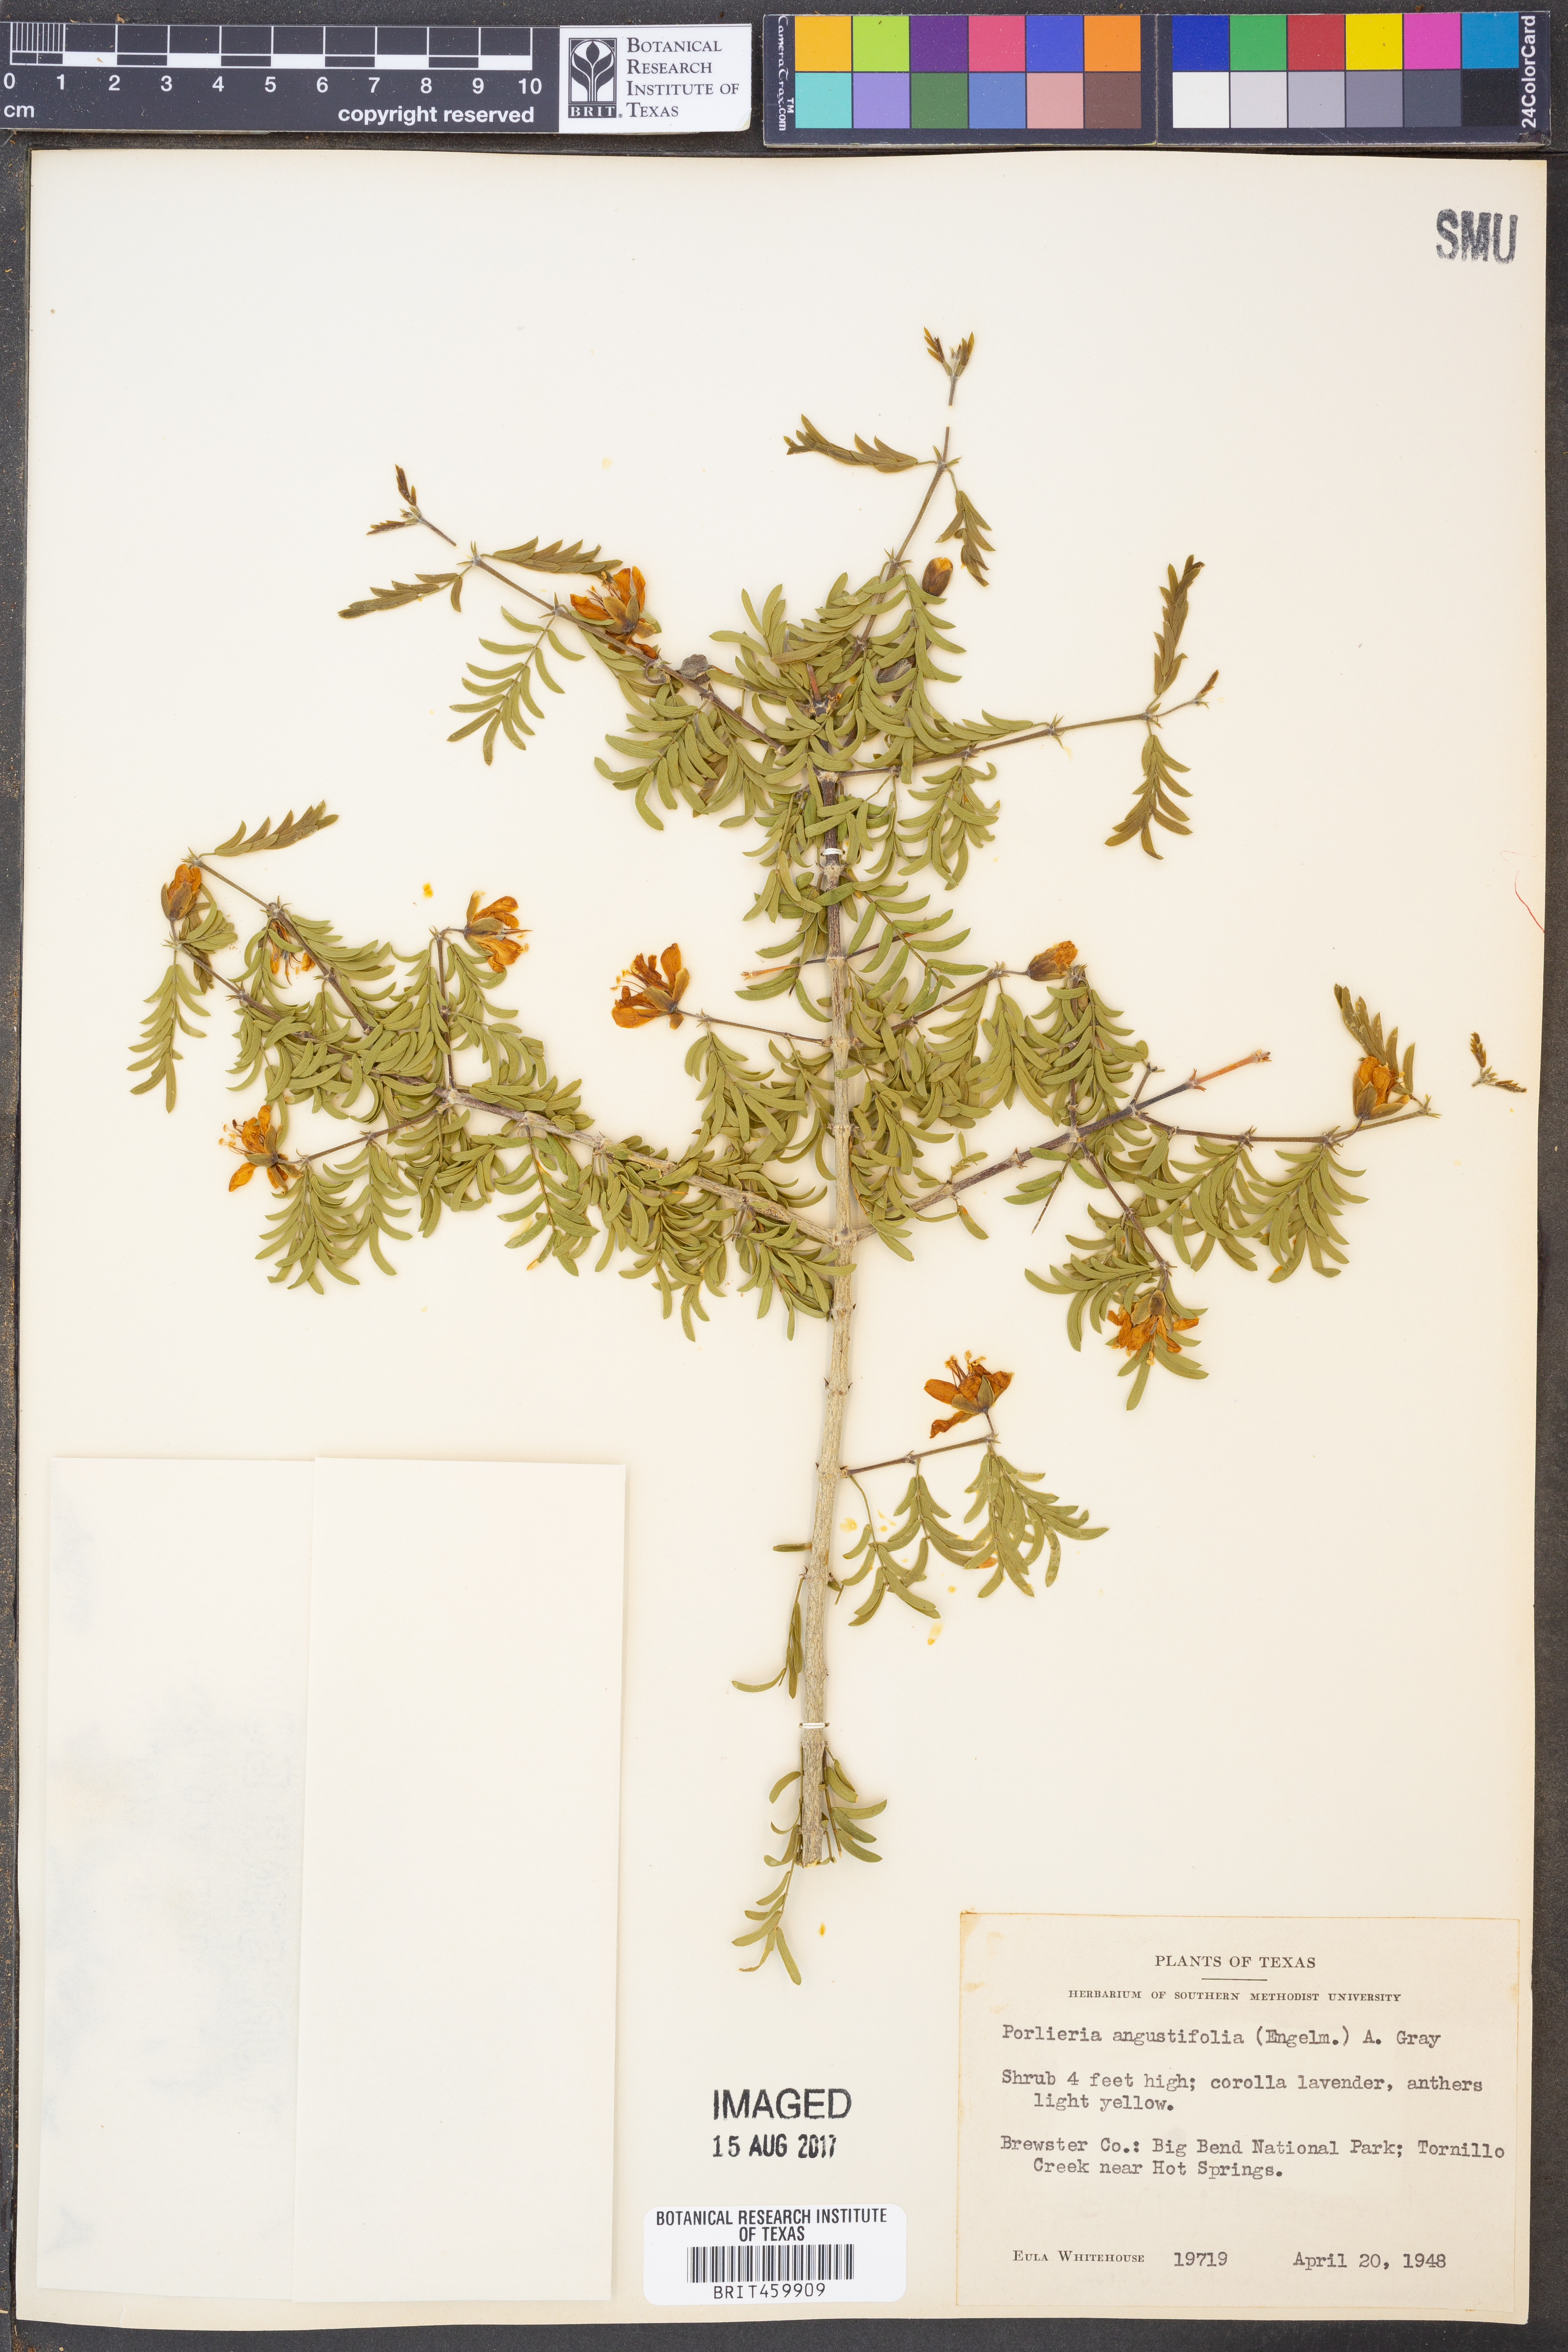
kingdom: Plantae
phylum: Tracheophyta
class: Magnoliopsida
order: Zygophyllales
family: Zygophyllaceae
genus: Porlieria
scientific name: Porlieria angustifolia
